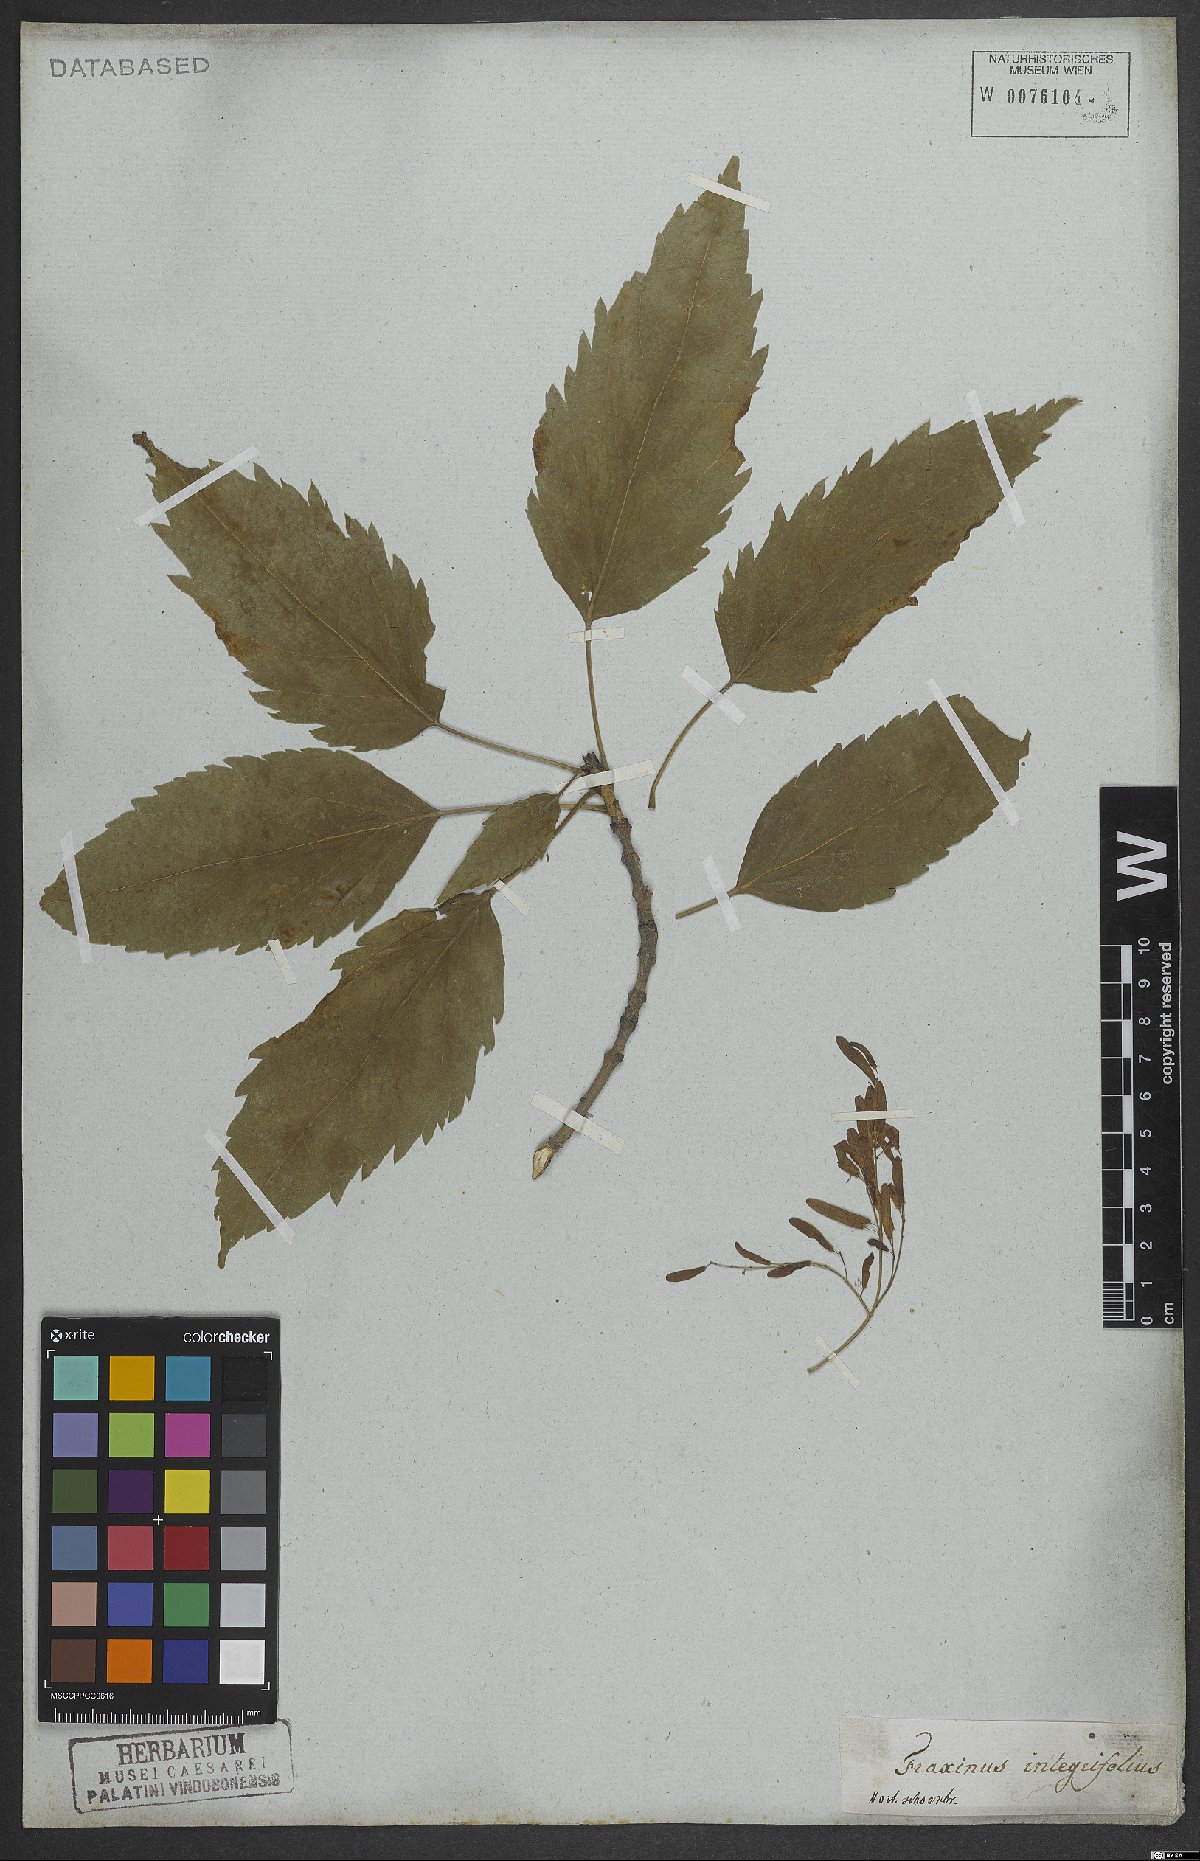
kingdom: Plantae
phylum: Tracheophyta
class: Magnoliopsida
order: Lamiales
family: Oleaceae
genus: Fraxinus
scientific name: Fraxinus excelsior
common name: European ash
